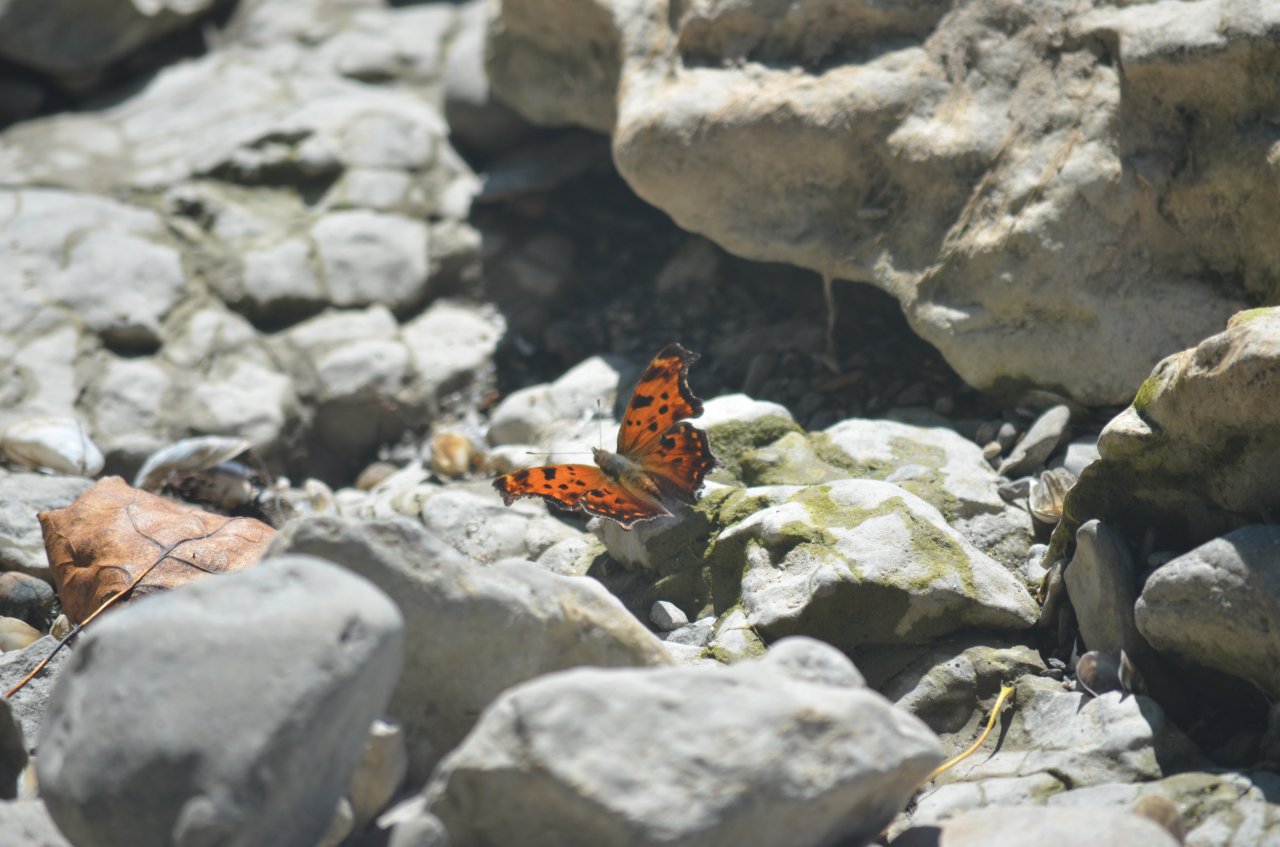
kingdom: Animalia
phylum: Arthropoda
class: Insecta
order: Lepidoptera
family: Nymphalidae
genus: Polygonia
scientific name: Polygonia comma
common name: Eastern Comma
